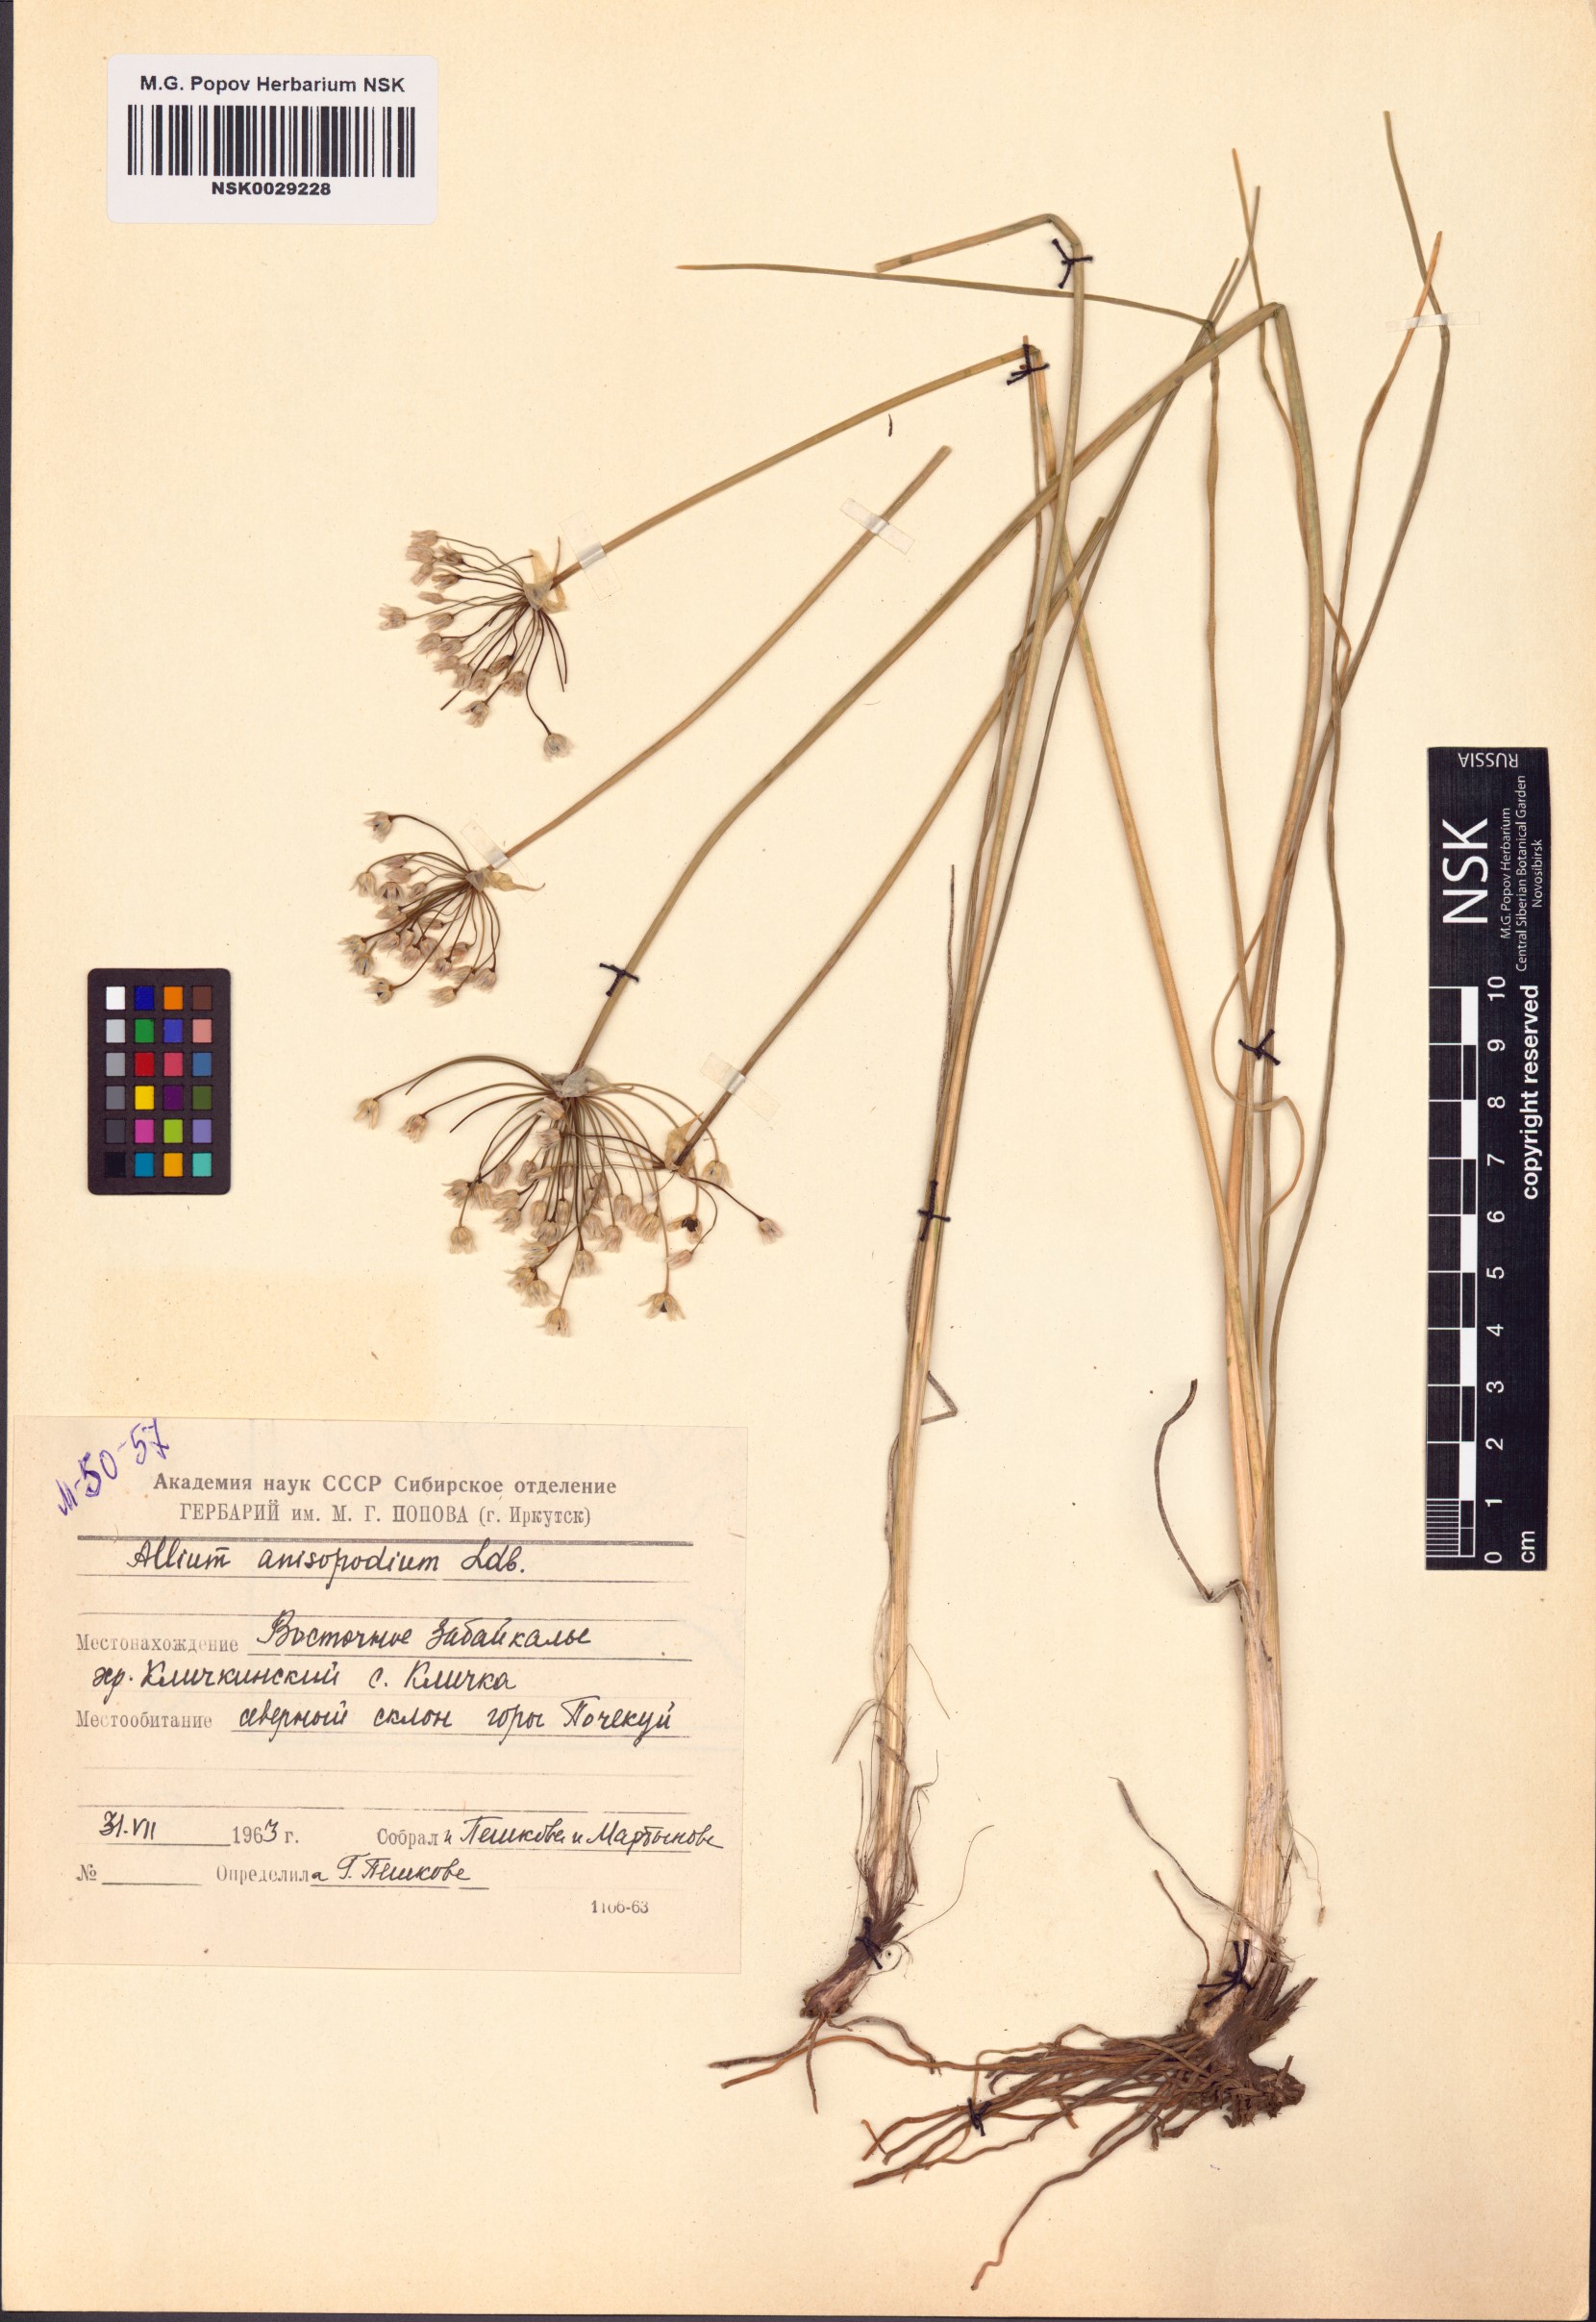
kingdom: Plantae
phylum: Tracheophyta
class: Liliopsida
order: Asparagales
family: Amaryllidaceae
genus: Allium
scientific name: Allium anisopodium
